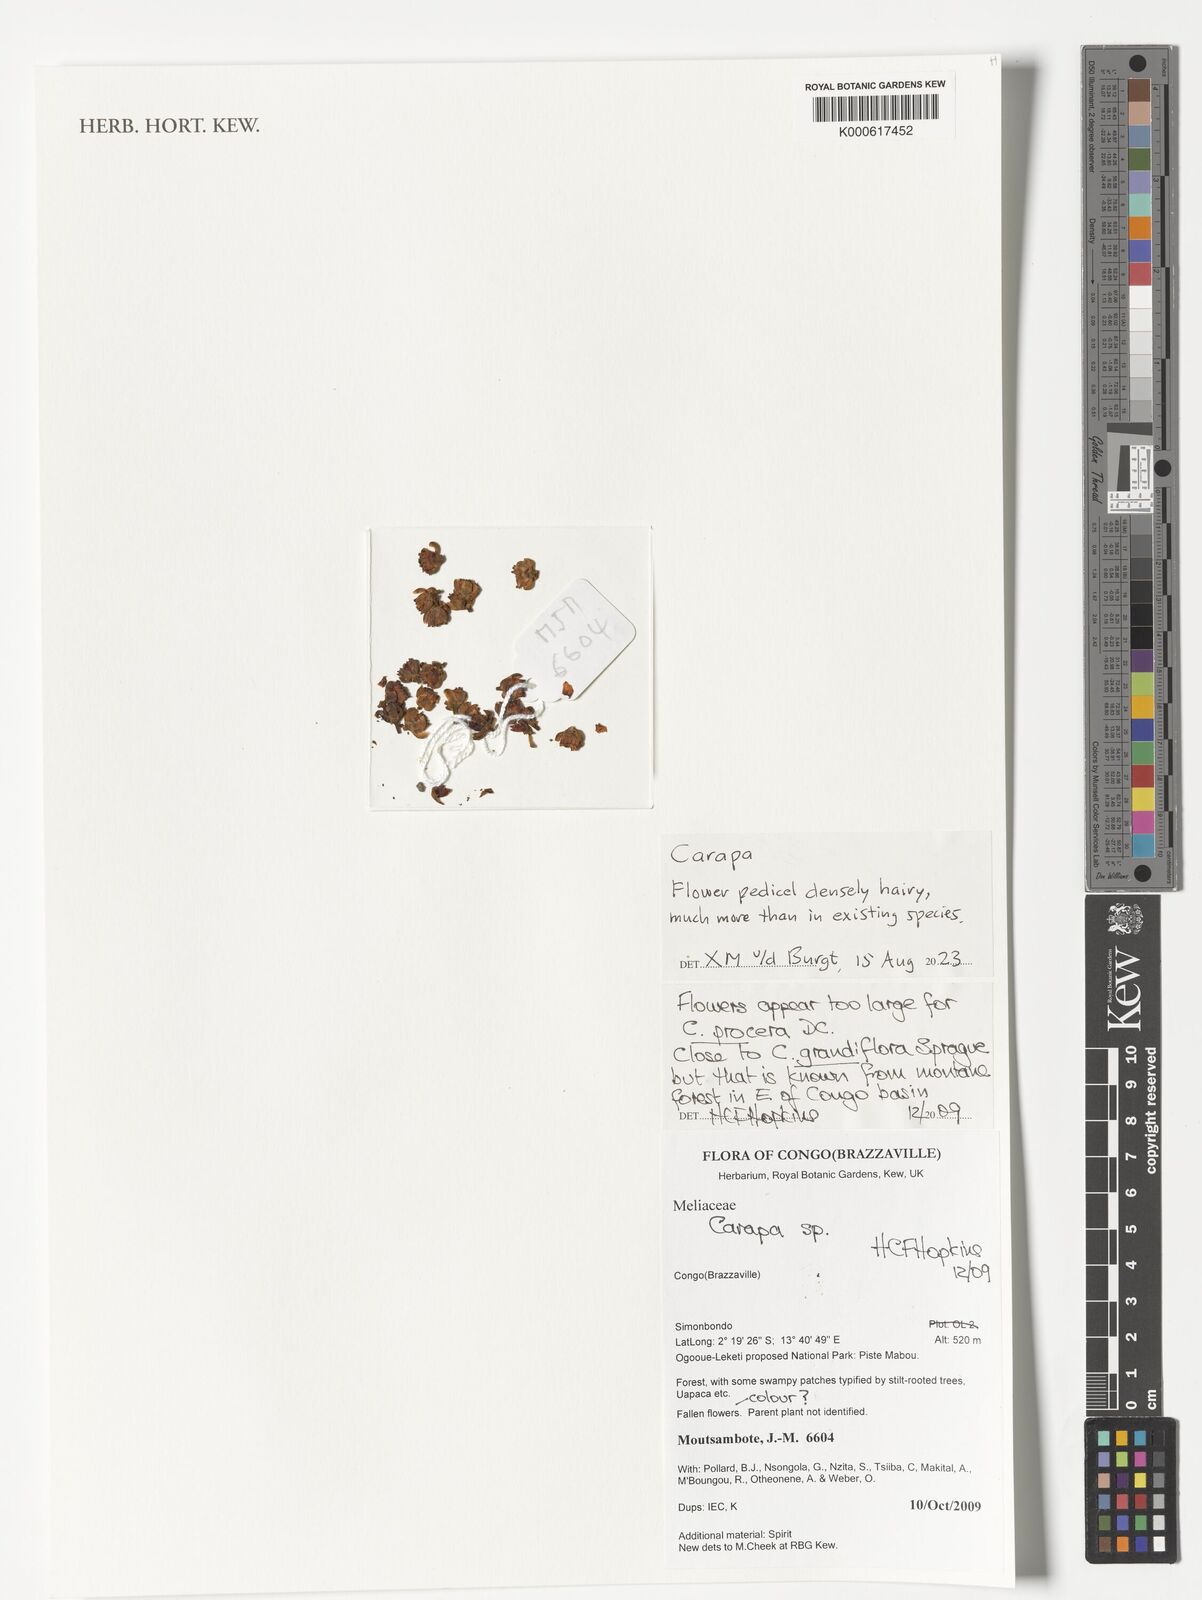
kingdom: Plantae
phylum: Tracheophyta
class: Magnoliopsida
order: Sapindales
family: Meliaceae
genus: Carapa
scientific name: Carapa
